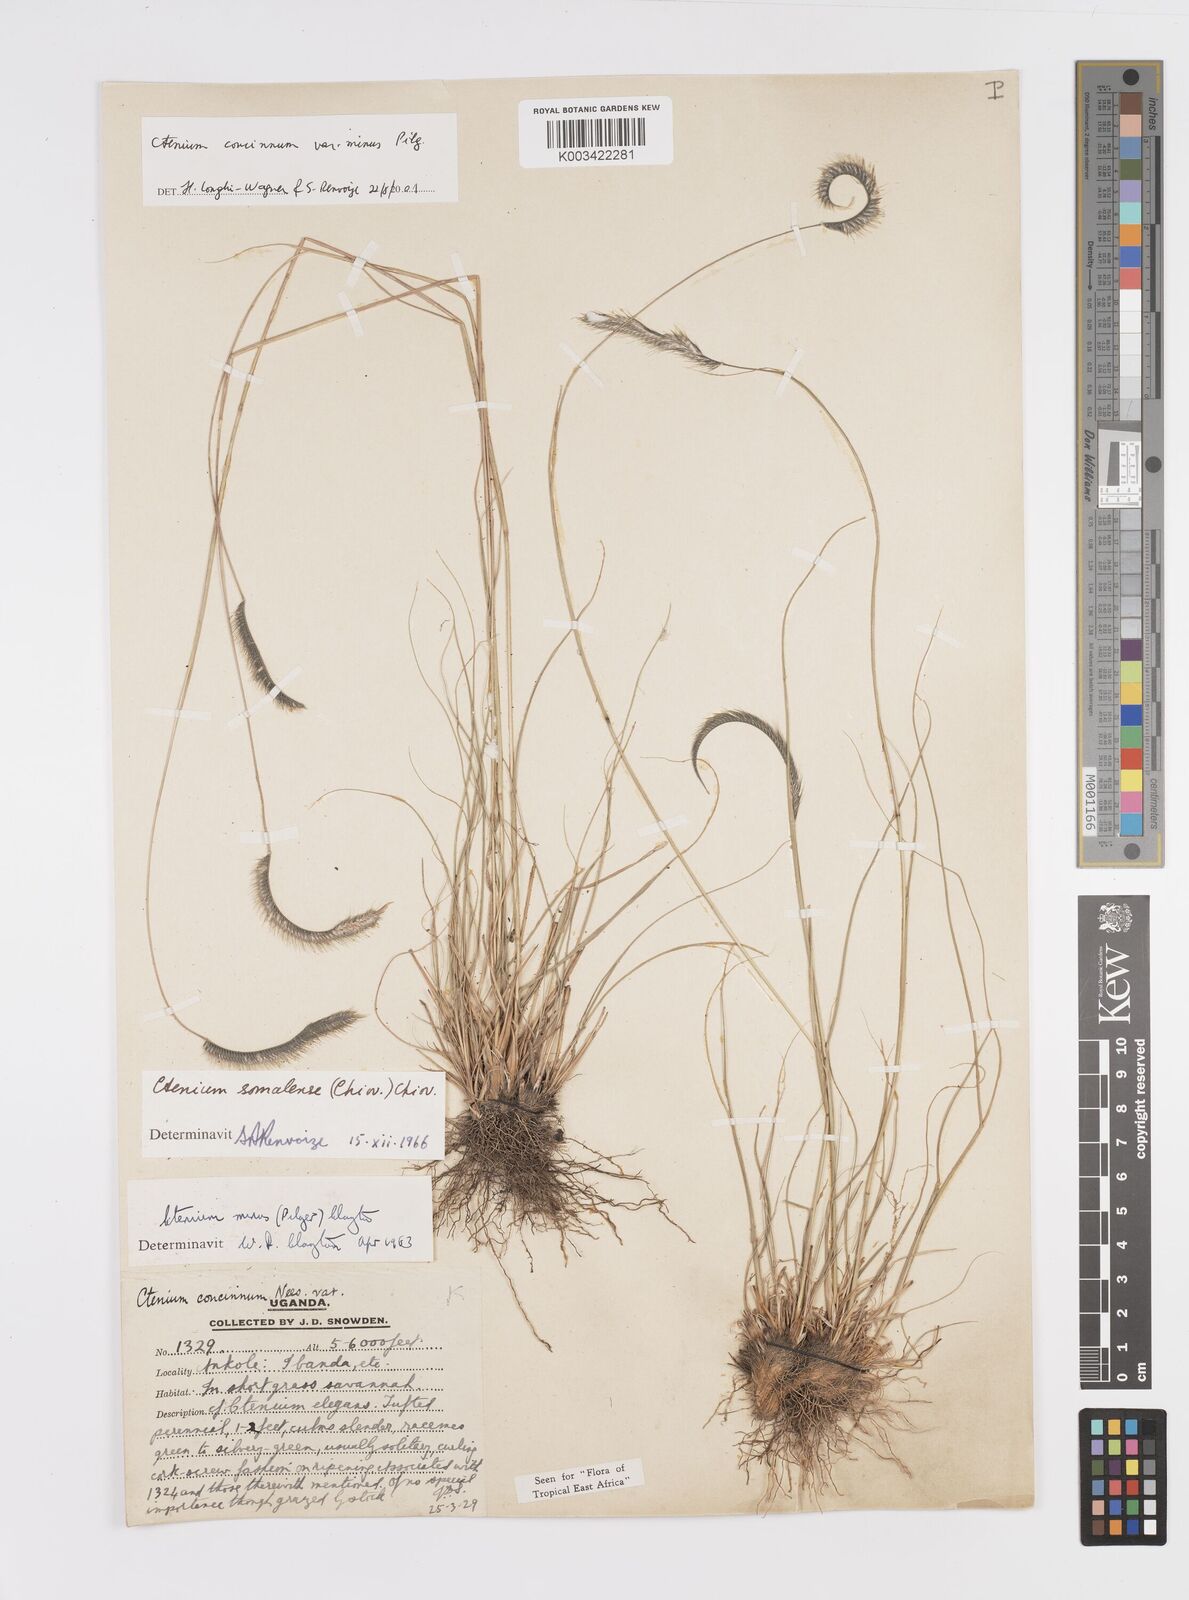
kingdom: Plantae
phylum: Tracheophyta
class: Liliopsida
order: Poales
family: Poaceae
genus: Ctenium
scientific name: Ctenium concinnum
